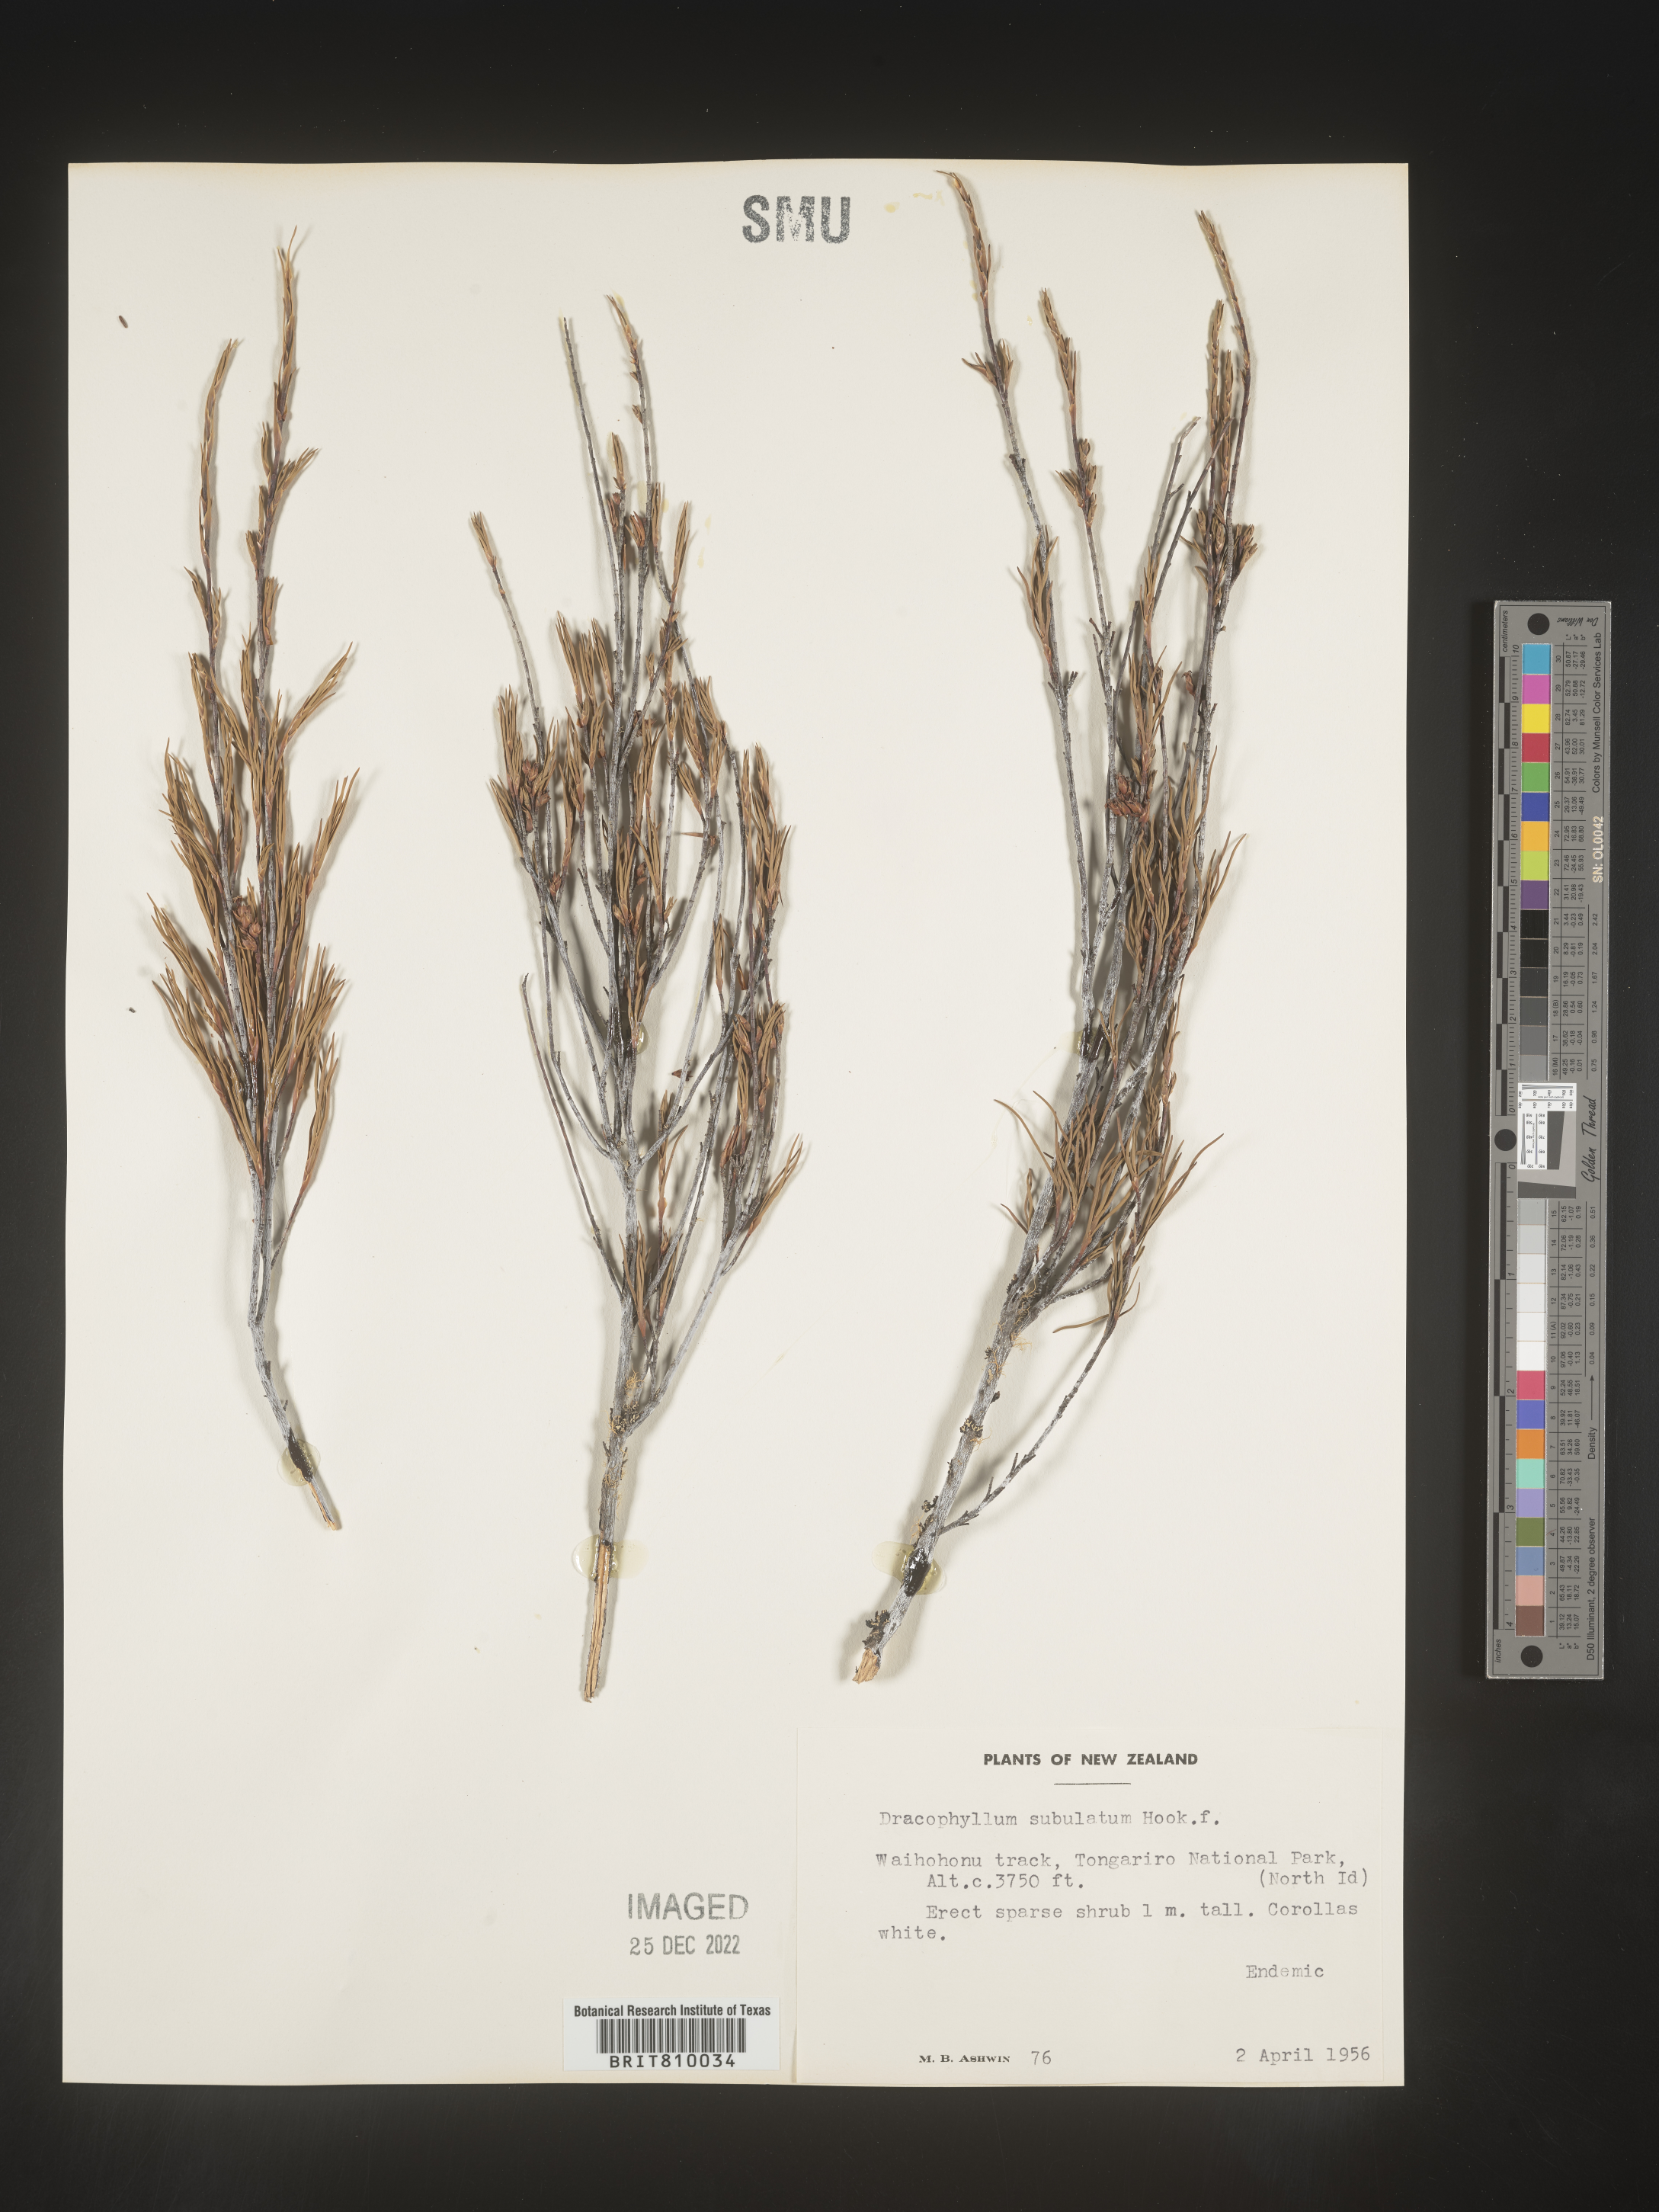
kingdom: Plantae
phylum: Tracheophyta
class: Magnoliopsida
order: Ericales
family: Ericaceae
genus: Dracophyllum
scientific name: Dracophyllum
